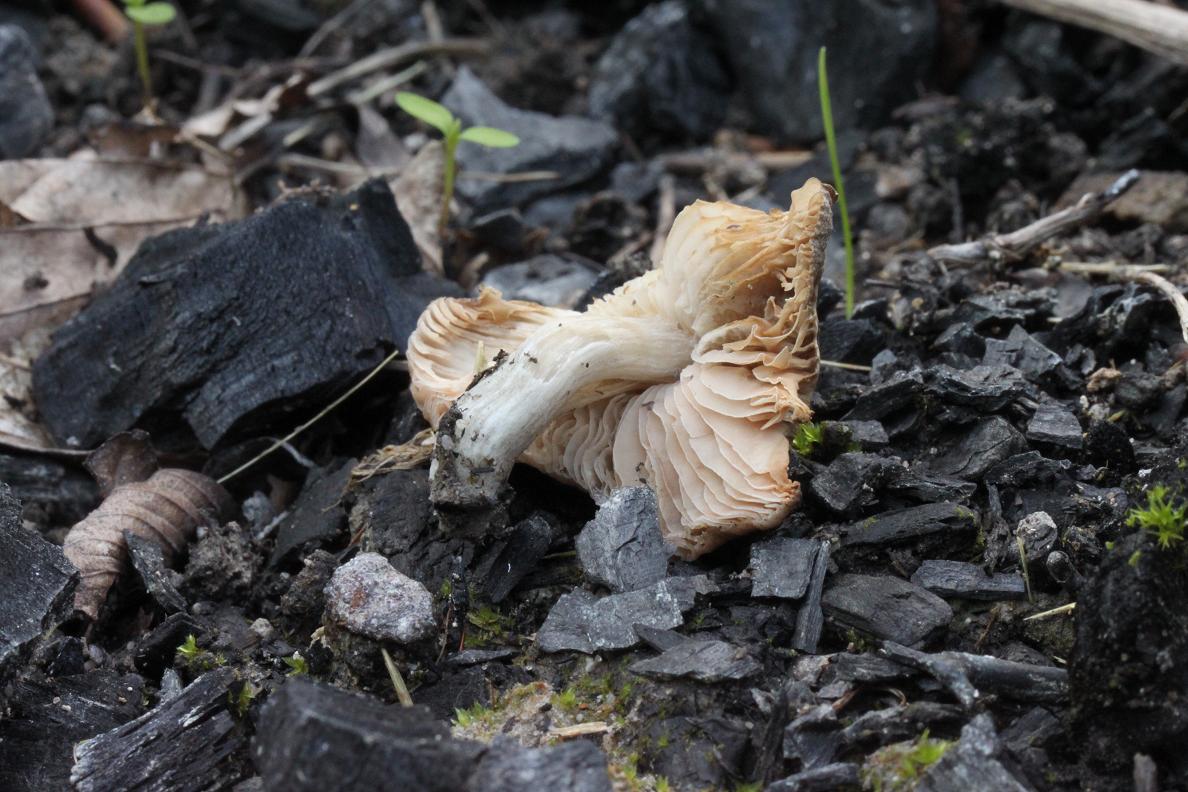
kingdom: Fungi
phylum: Basidiomycota
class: Agaricomycetes
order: Agaricales
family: Pluteaceae
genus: Pluteus
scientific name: Pluteus griseoluridus
